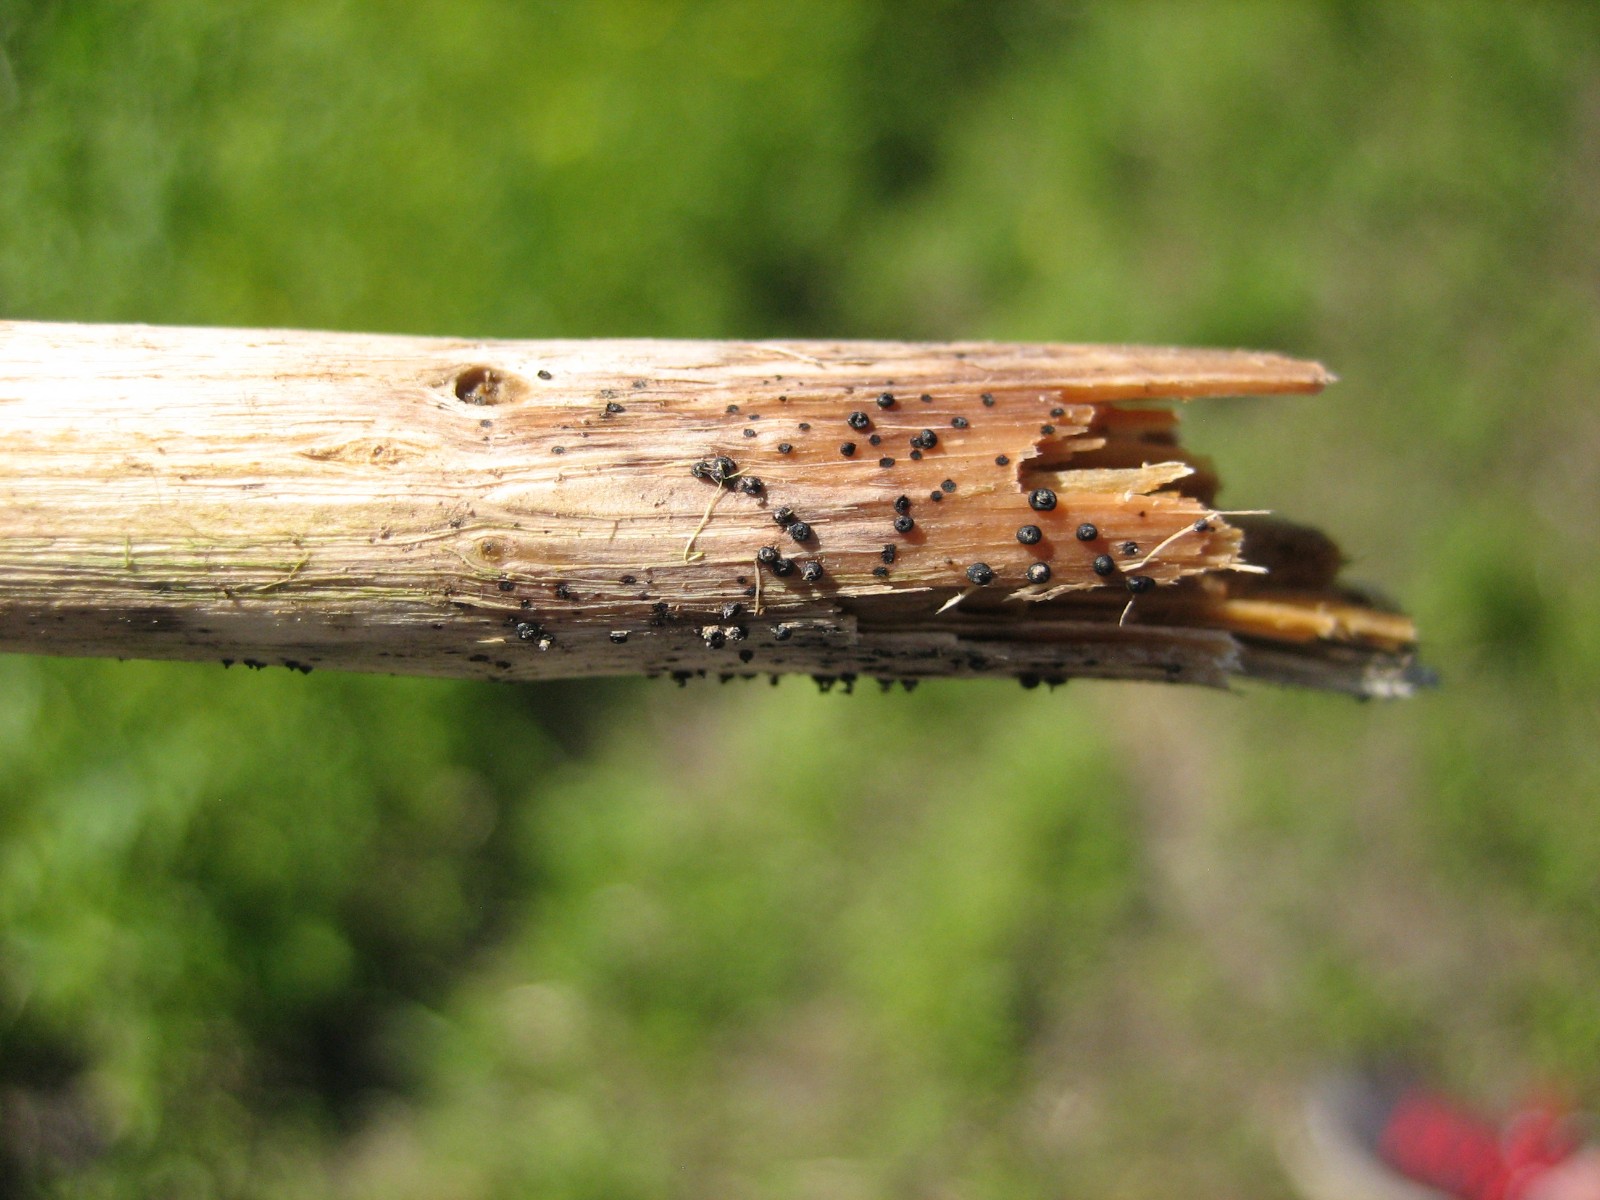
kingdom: Fungi
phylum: Ascomycota
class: Dothideomycetes
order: Pleosporales
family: Leptosphaeriaceae
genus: Leptosphaeria
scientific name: Leptosphaeria
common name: kulkegle
